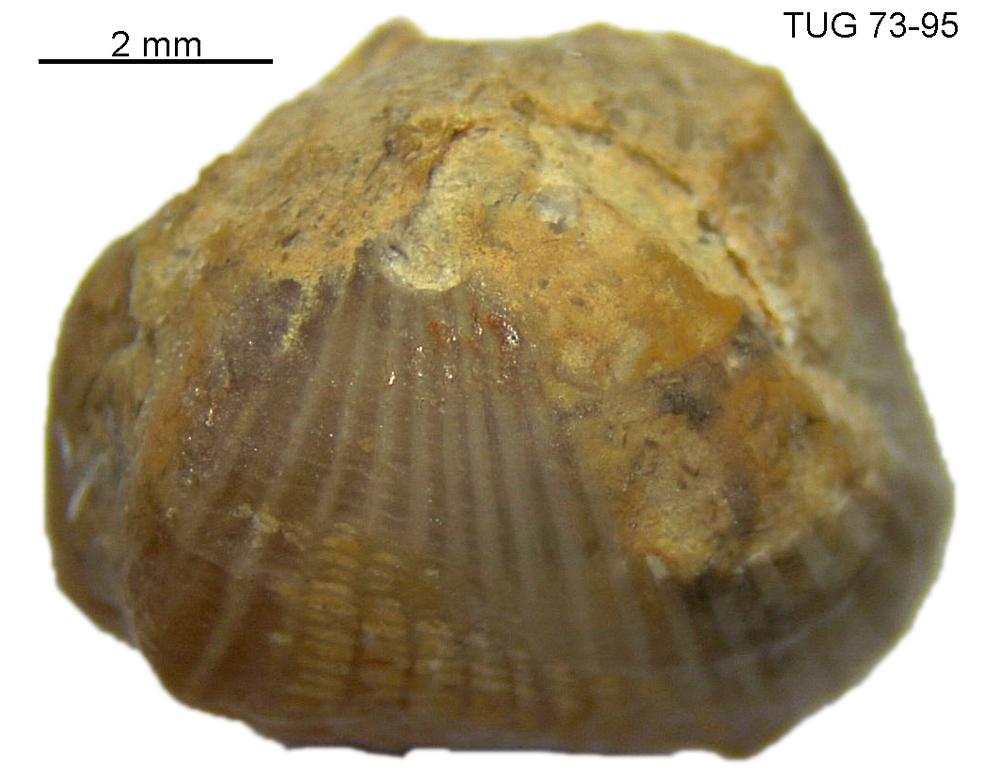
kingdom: Animalia
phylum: Mollusca
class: Rostroconchia
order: Conocardiida
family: Bransoniidae
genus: Mulceodens
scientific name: Mulceodens jaanussoni
